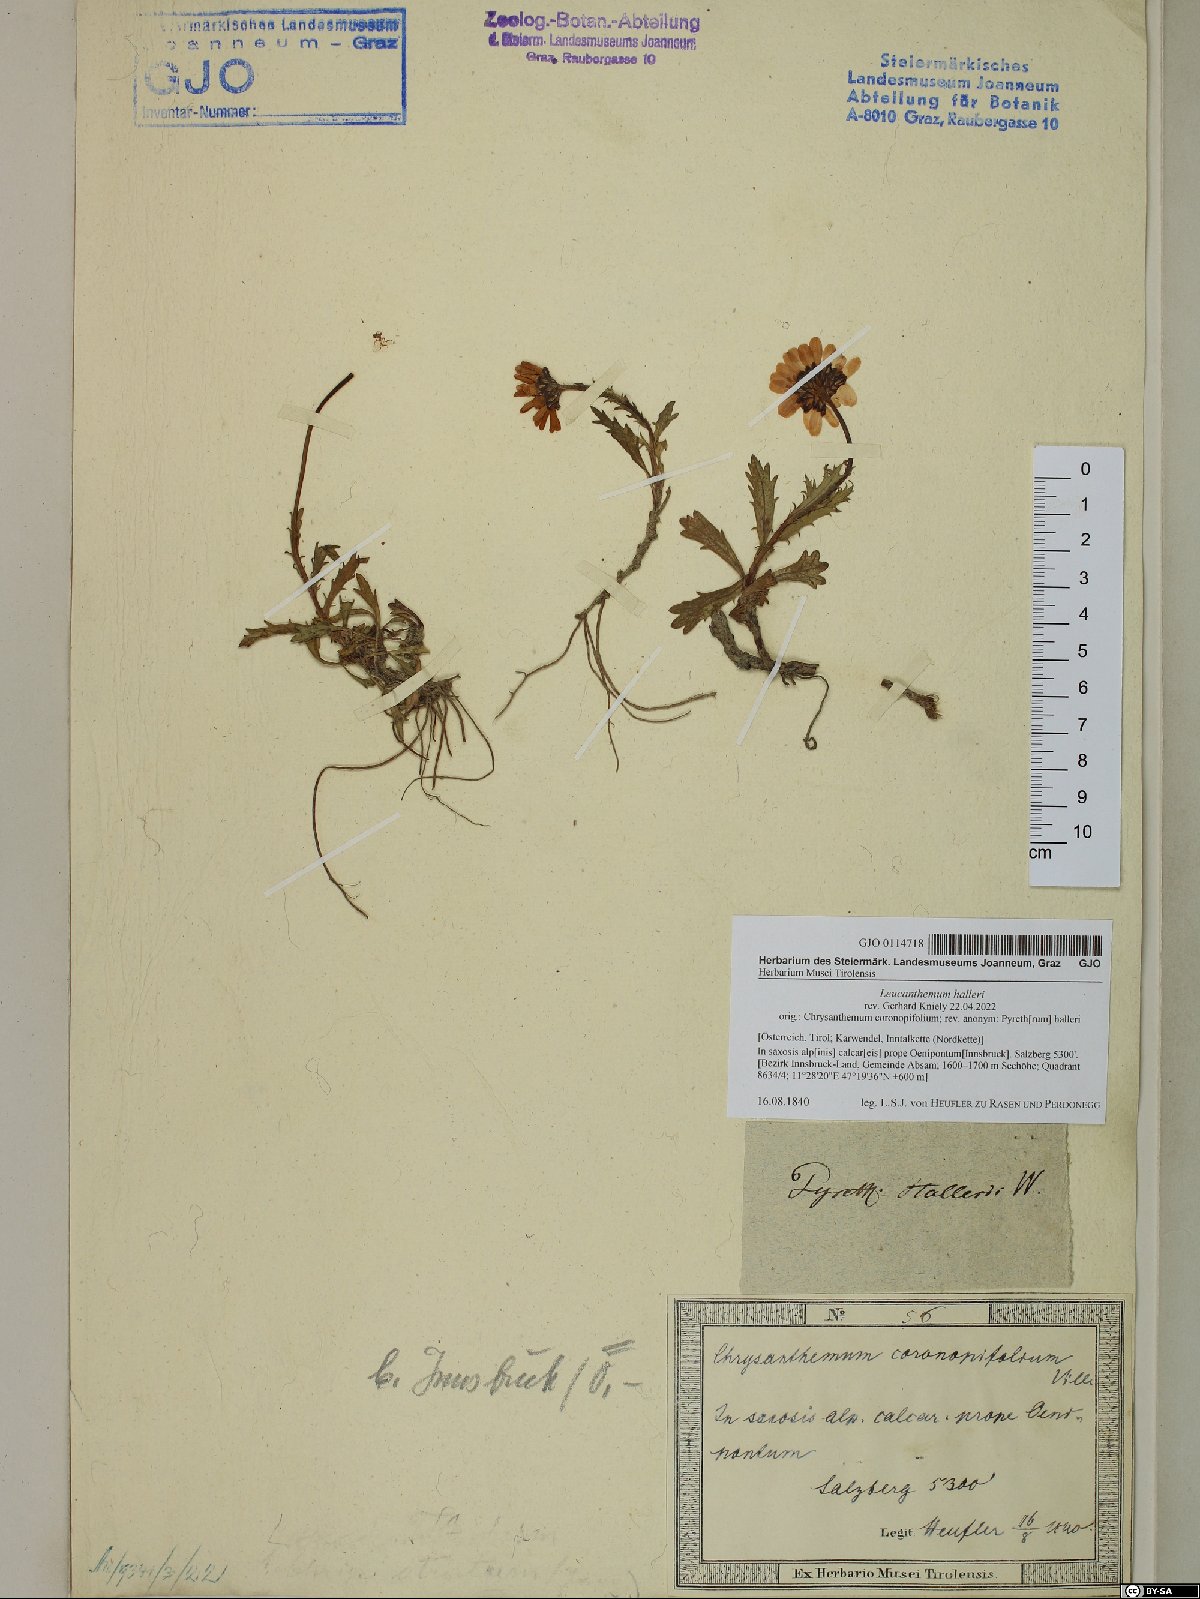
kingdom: Plantae
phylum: Tracheophyta
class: Magnoliopsida
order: Asterales
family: Asteraceae
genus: Leucanthemum
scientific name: Leucanthemum halleri
